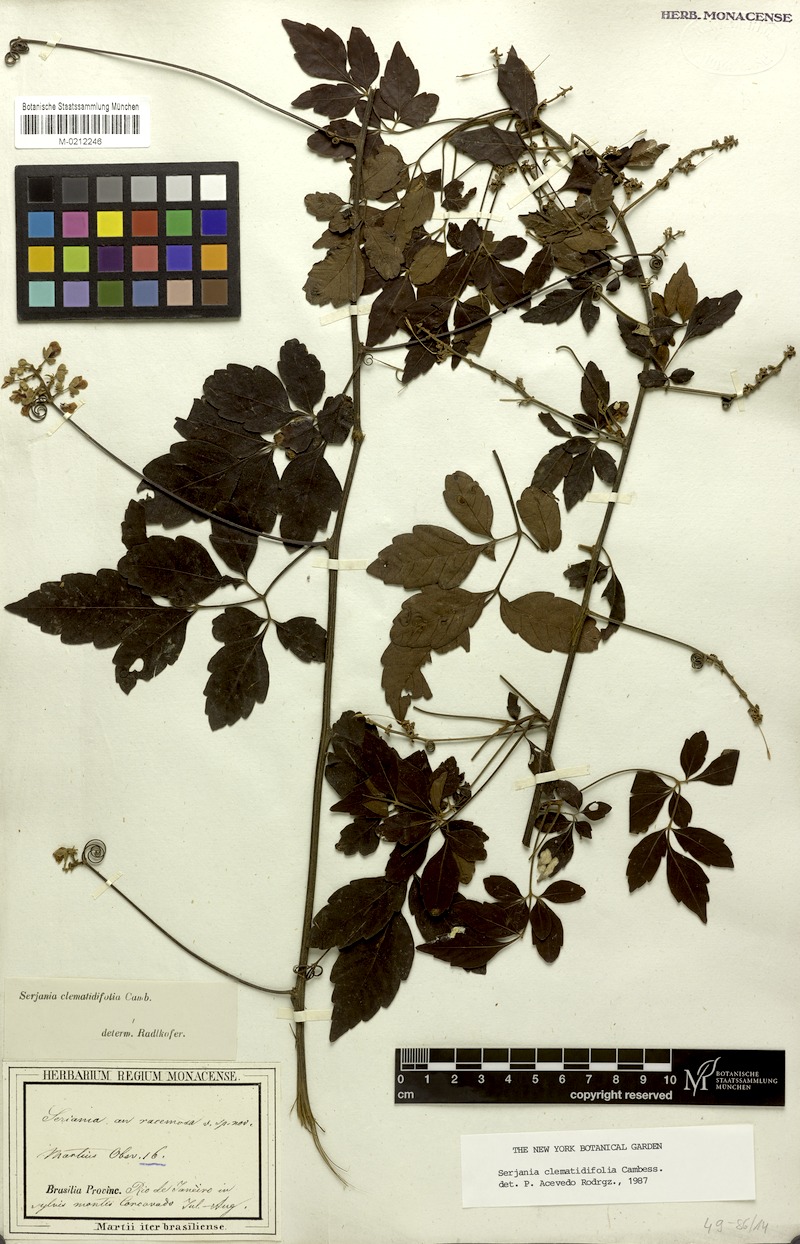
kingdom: Plantae
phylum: Tracheophyta
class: Magnoliopsida
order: Sapindales
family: Sapindaceae
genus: Serjania
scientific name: Serjania clematidifolia
